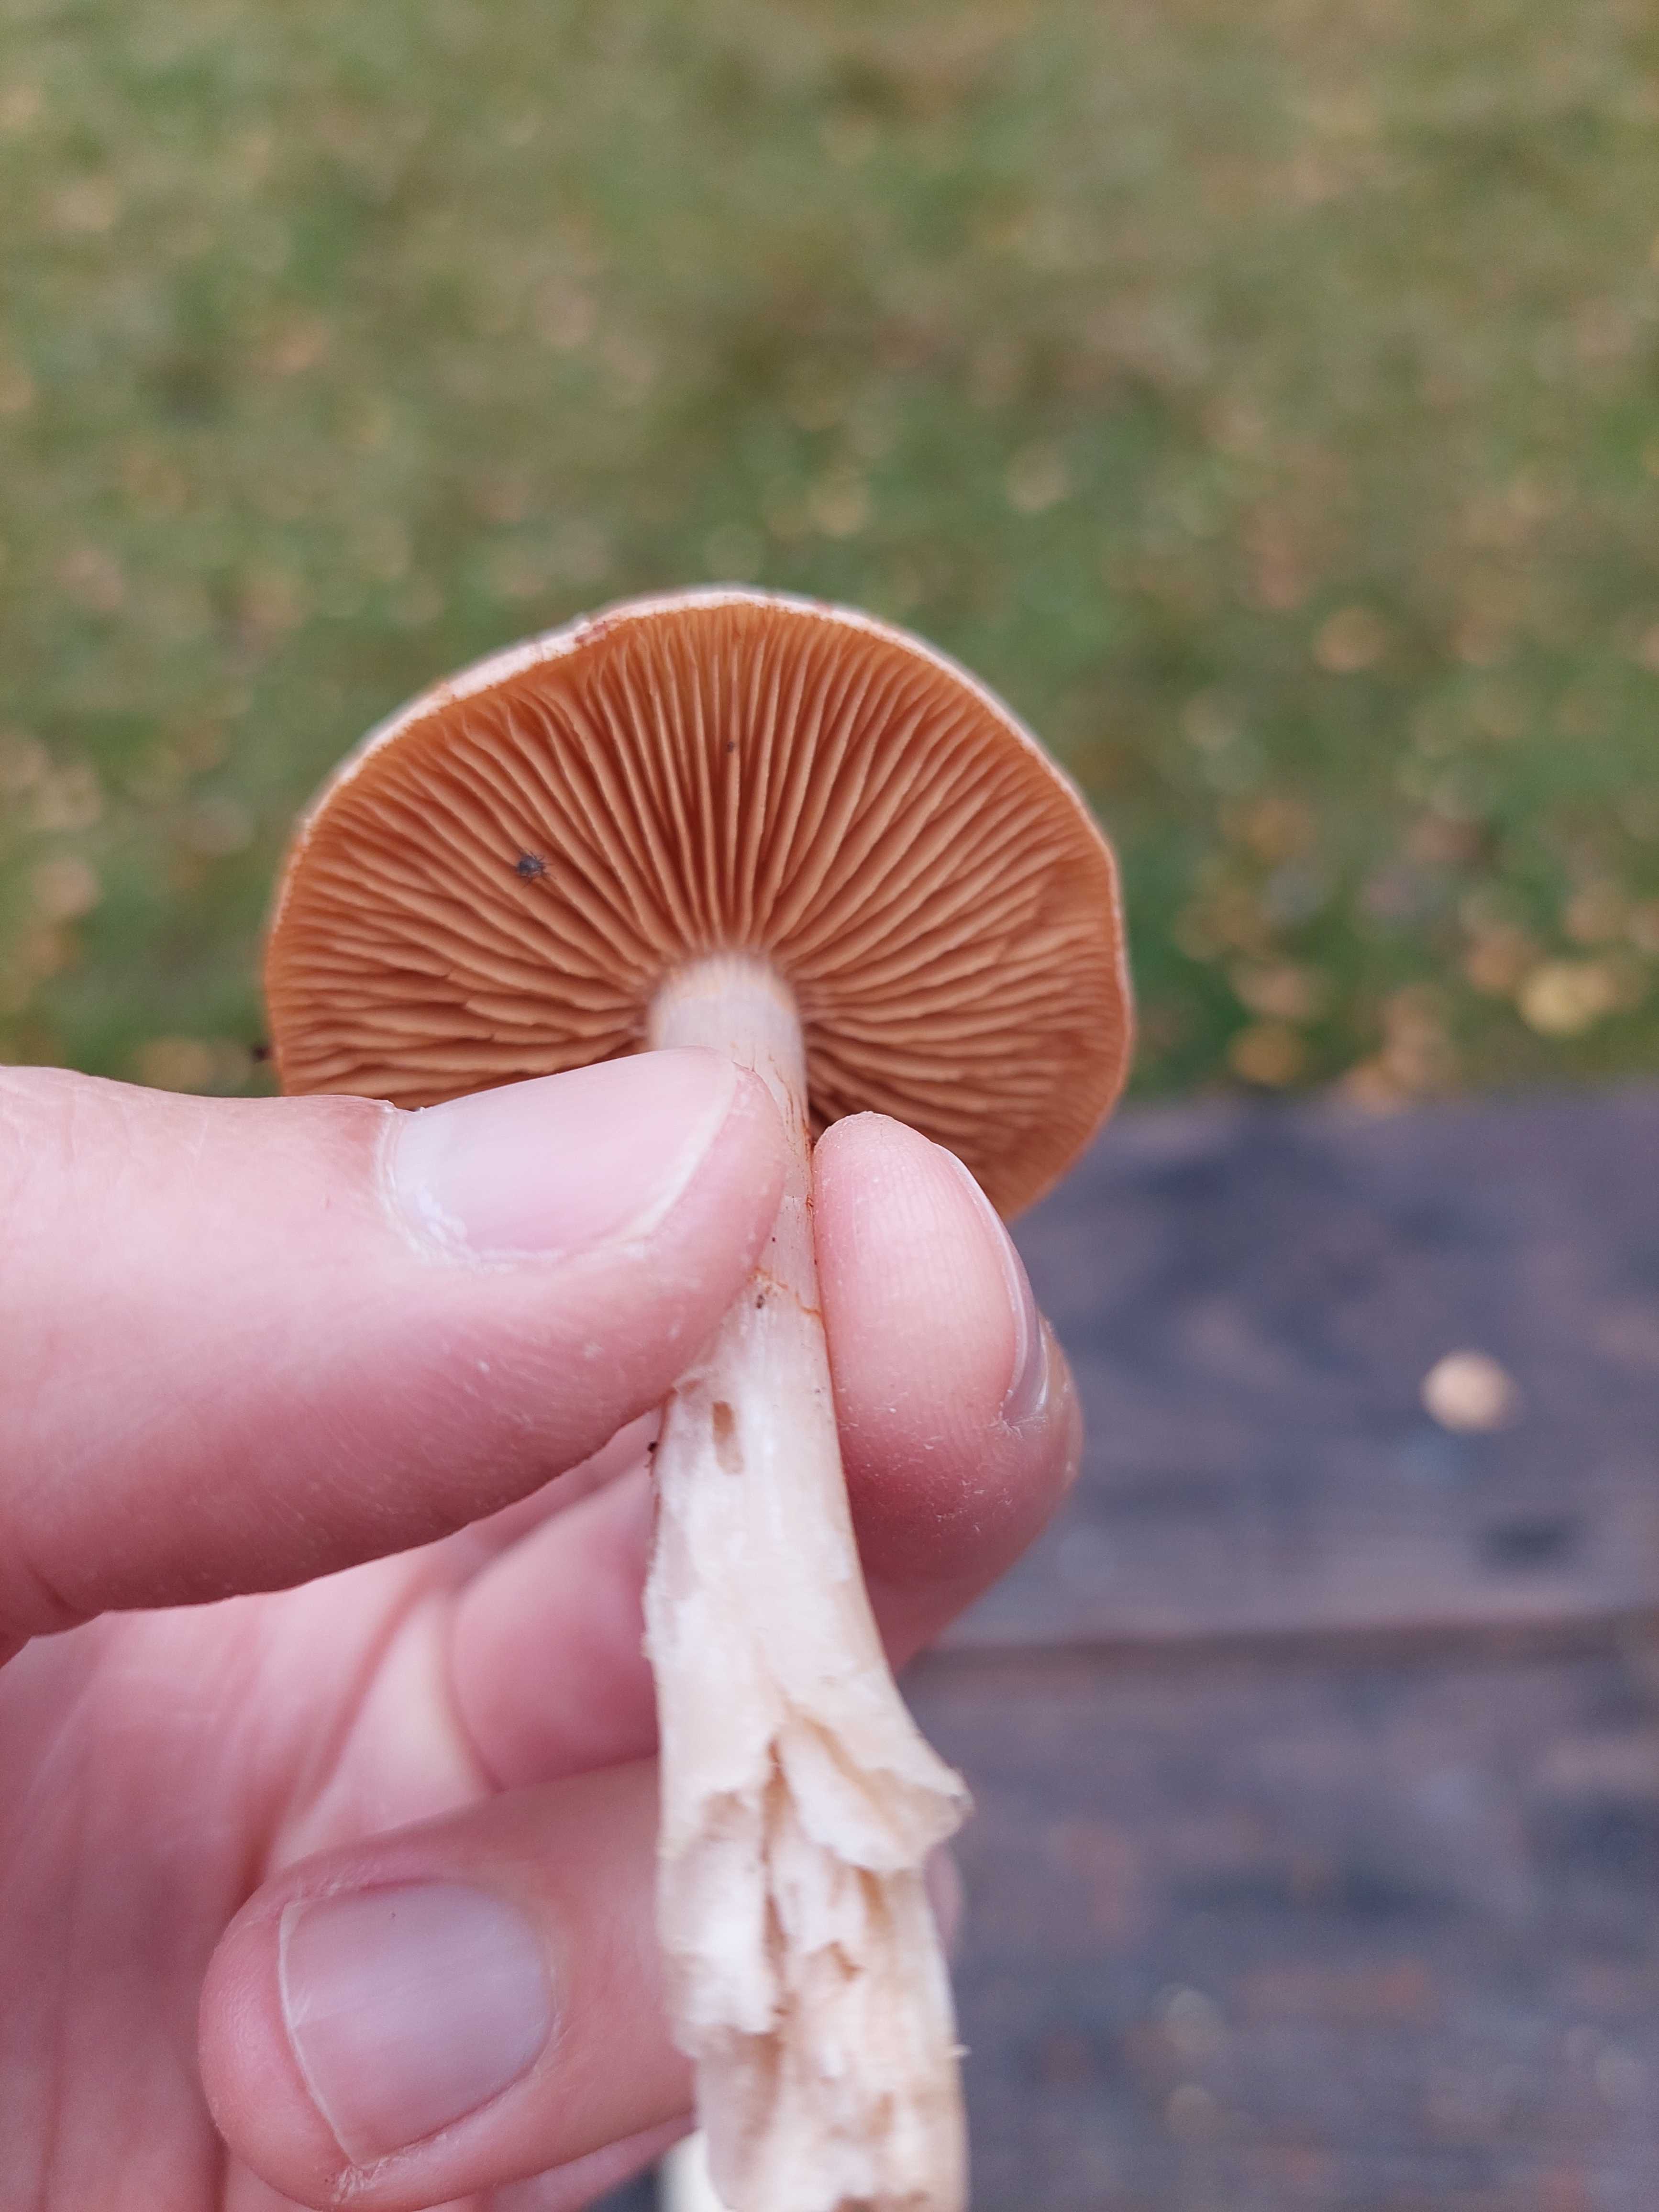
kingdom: Fungi
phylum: Basidiomycota
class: Agaricomycetes
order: Agaricales
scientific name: Agaricales
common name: champignonordenen
